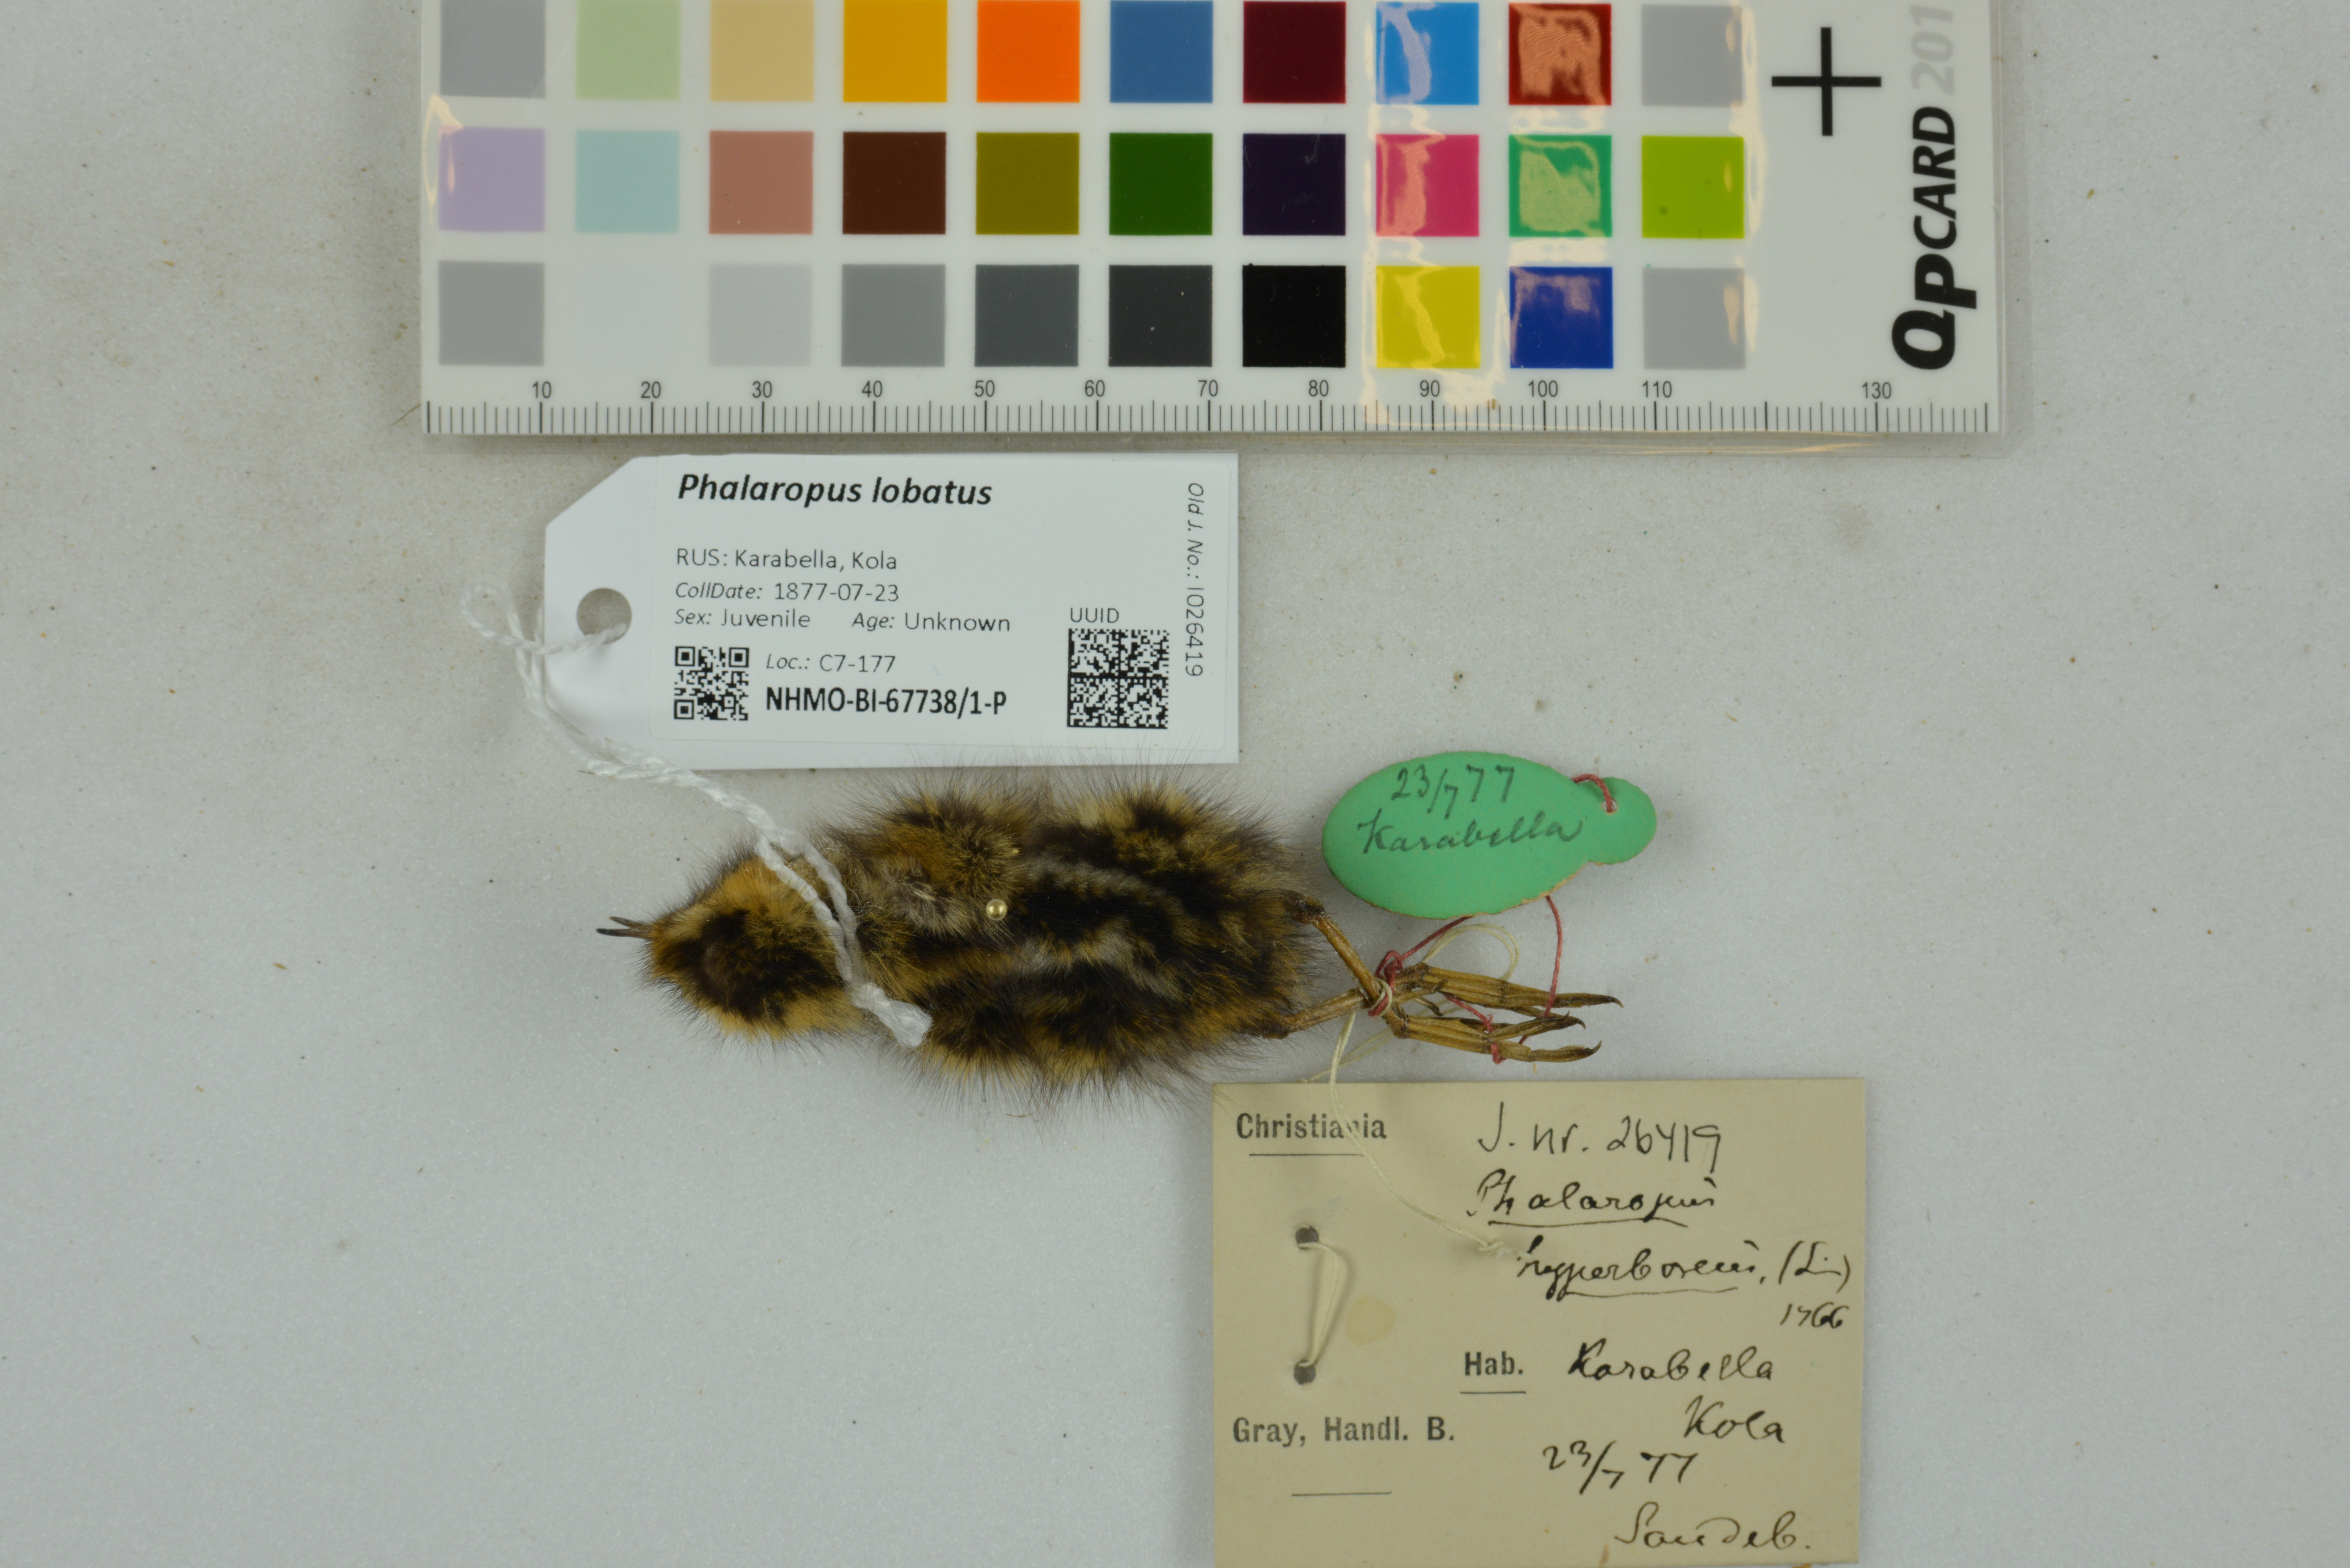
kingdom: Animalia
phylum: Chordata
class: Aves
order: Charadriiformes
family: Scolopacidae
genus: Phalaropus
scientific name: Phalaropus lobatus
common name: Red-necked phalarope
